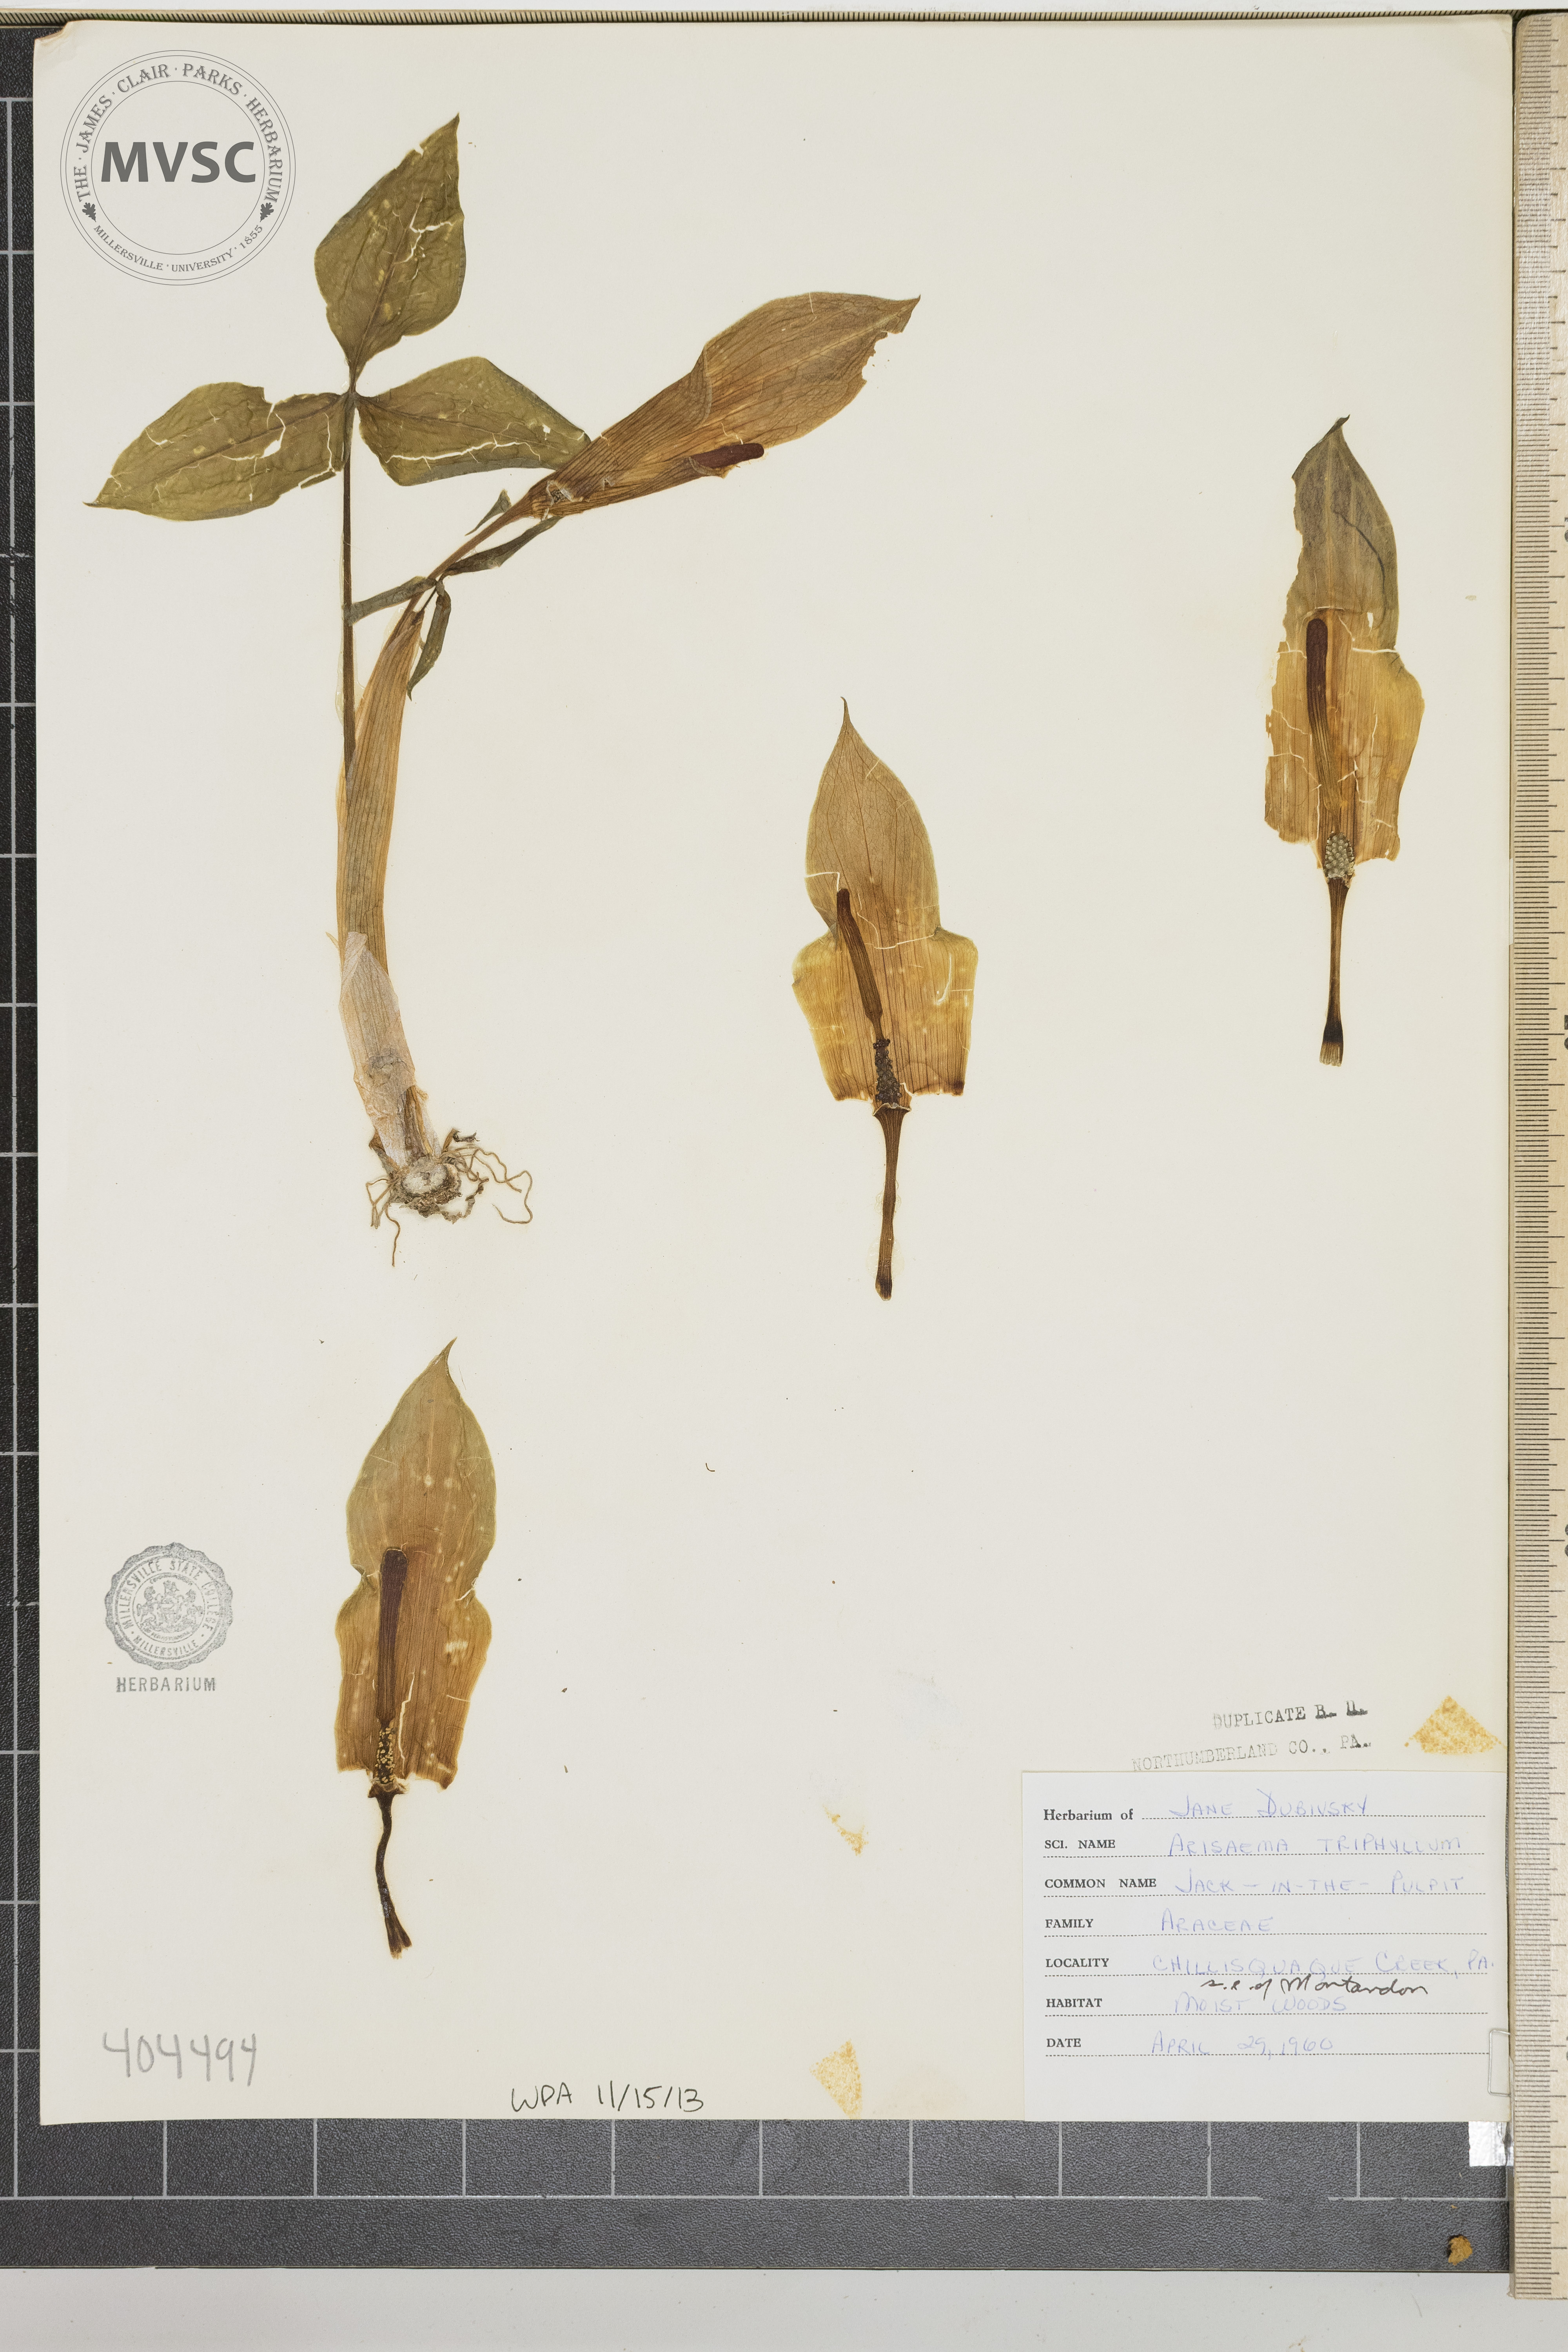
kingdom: Plantae
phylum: Tracheophyta
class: Liliopsida
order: Alismatales
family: Araceae
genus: Arisaema
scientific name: Arisaema triphyllum
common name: Jack-in-the-Pulpit
